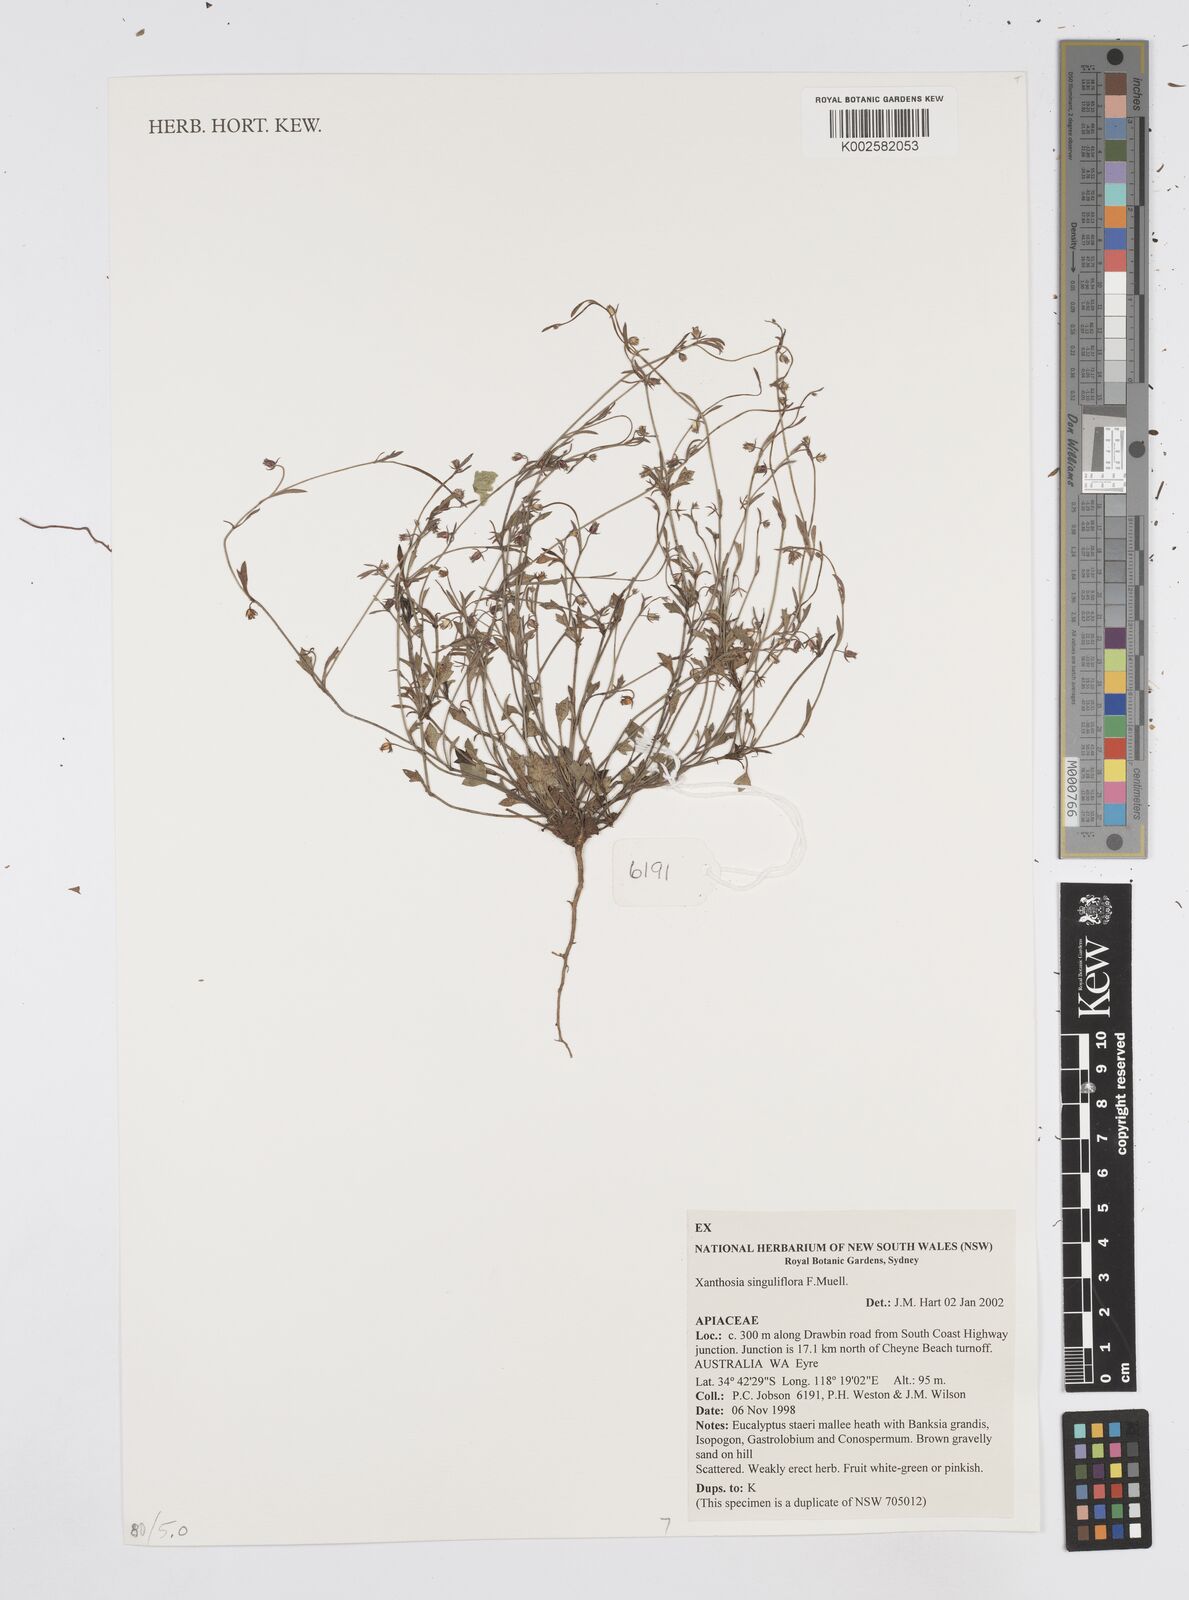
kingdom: Plantae
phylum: Tracheophyta
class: Magnoliopsida
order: Apiales
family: Apiaceae
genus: Xanthosia
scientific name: Xanthosia singuliflora
